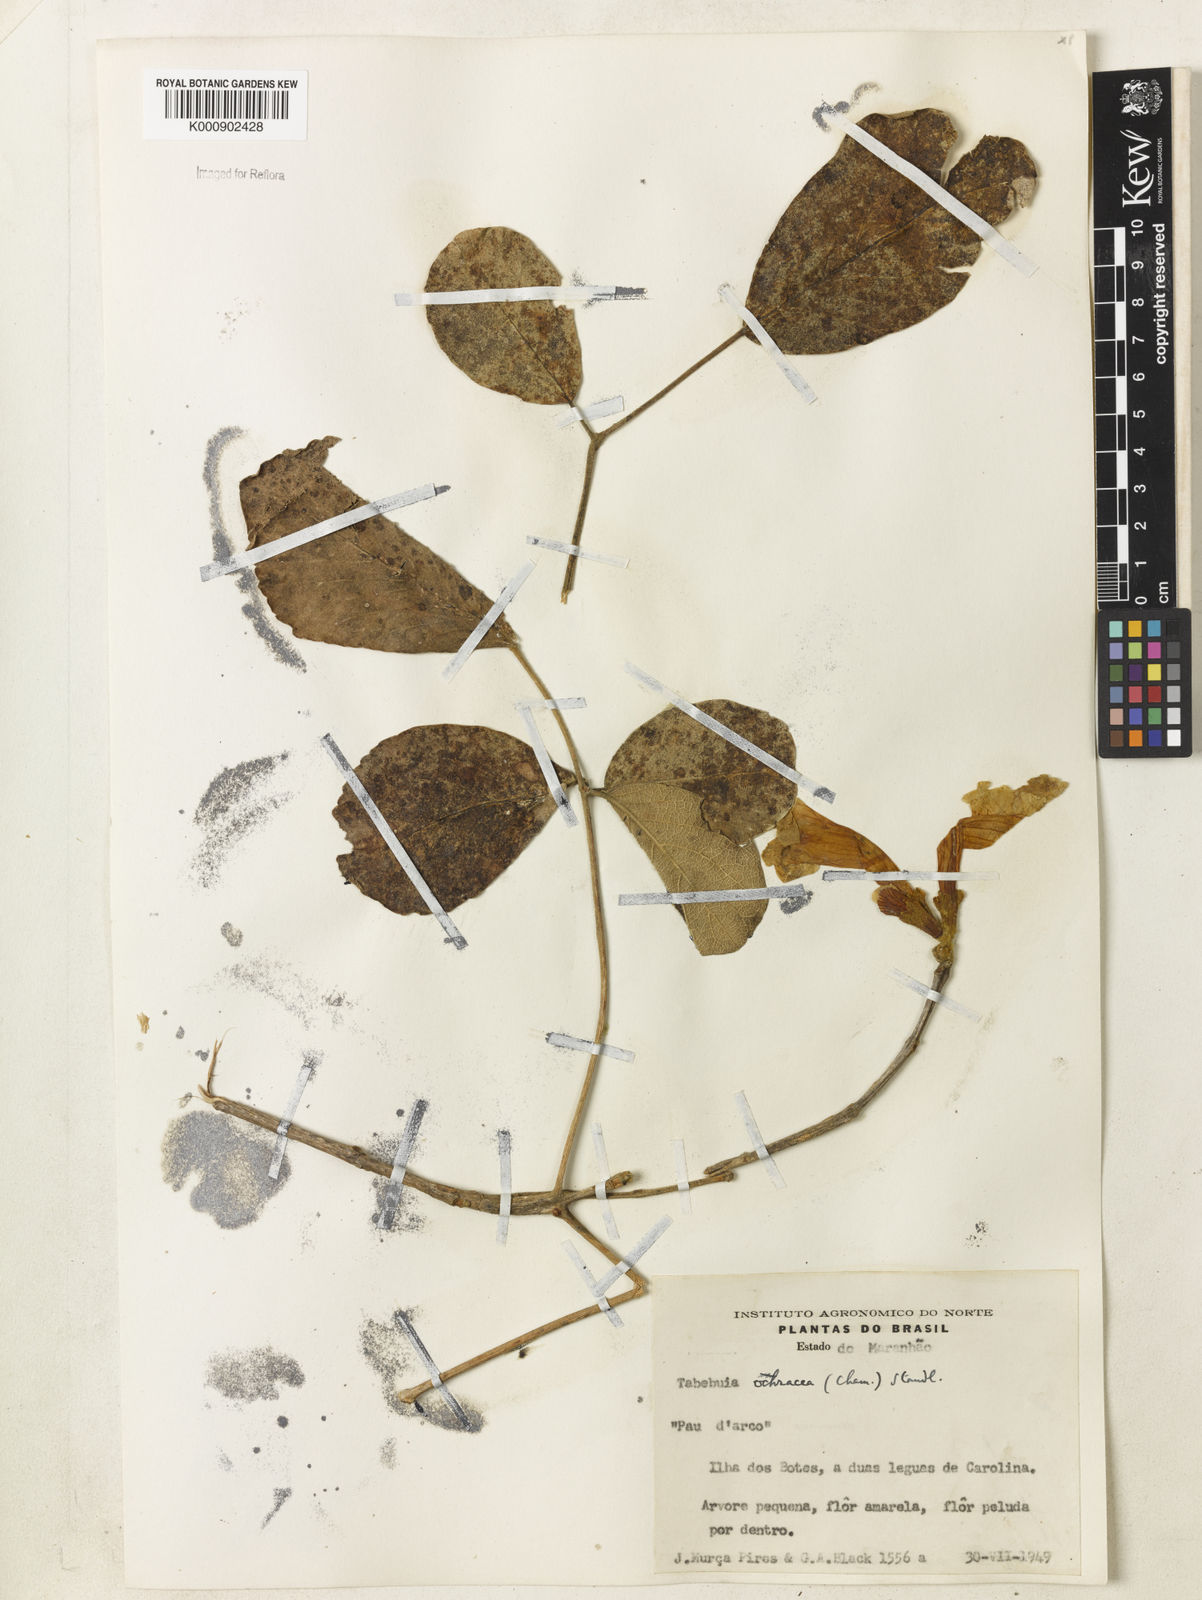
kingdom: Plantae
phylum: Tracheophyta
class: Magnoliopsida
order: Lamiales
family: Bignoniaceae
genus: Handroanthus
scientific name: Handroanthus ochraceus
